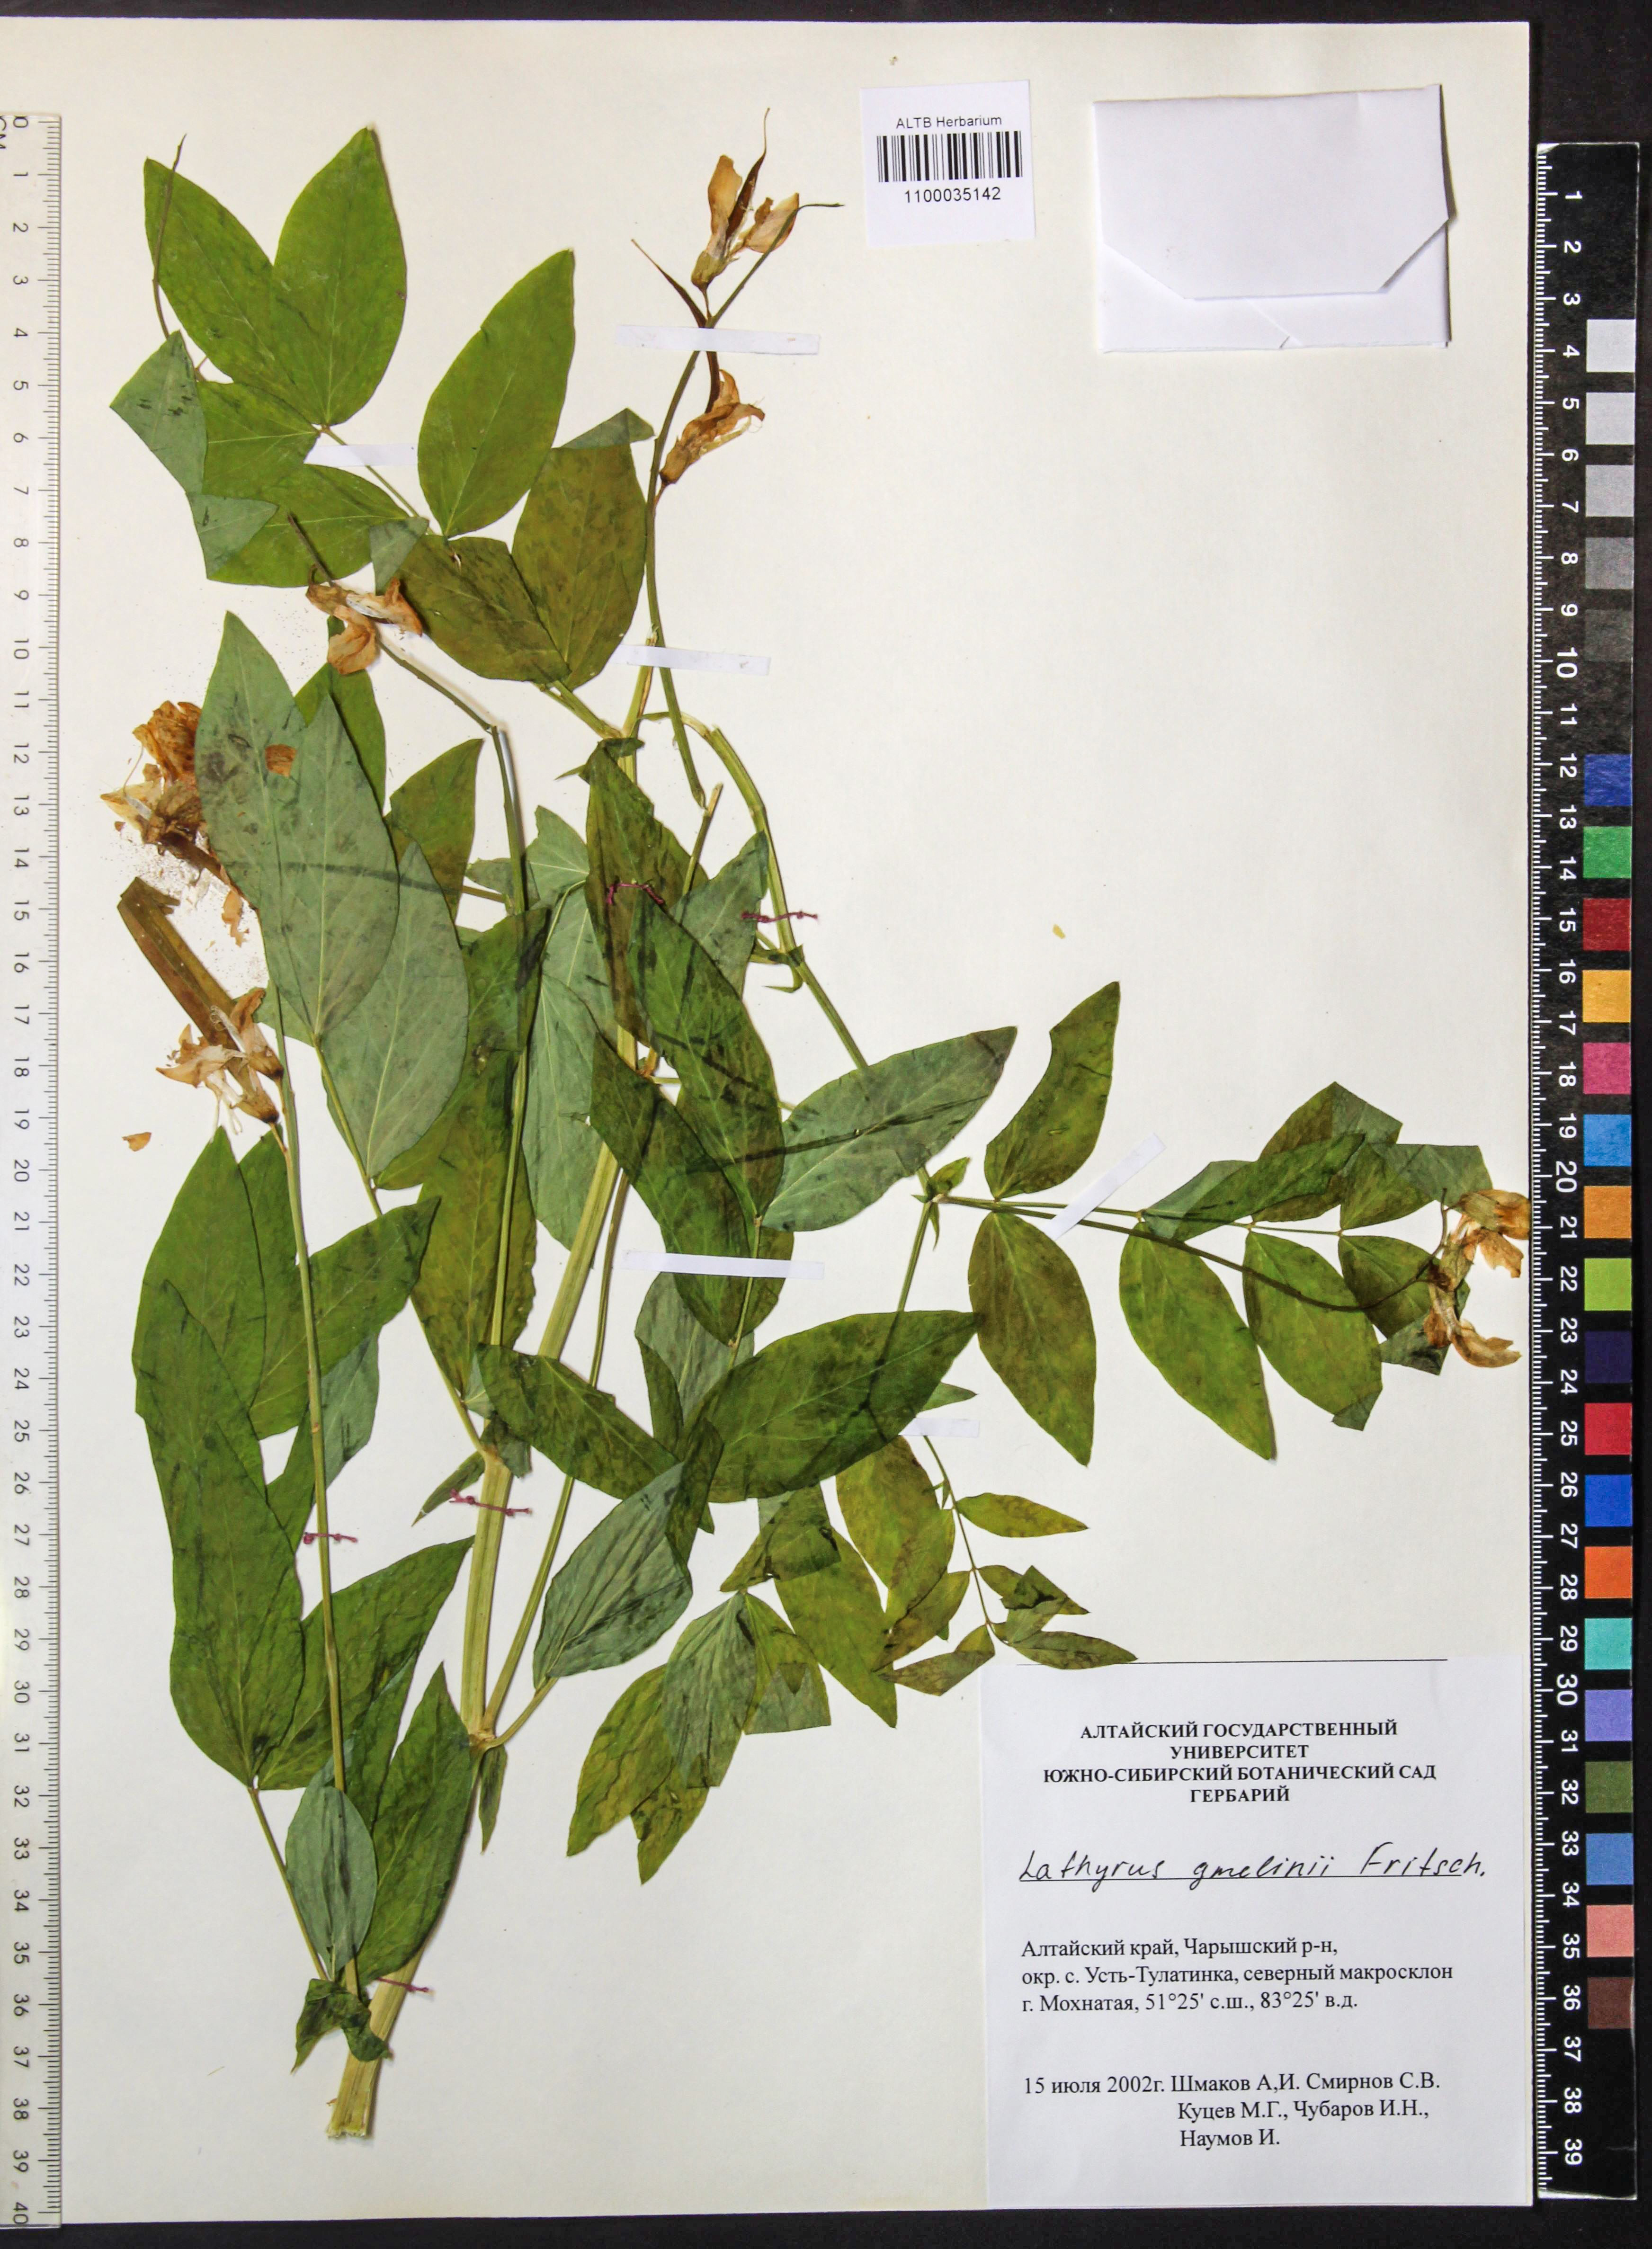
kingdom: Plantae
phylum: Tracheophyta
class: Magnoliopsida
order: Fabales
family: Fabaceae
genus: Lathyrus
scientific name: Lathyrus gmelinii
